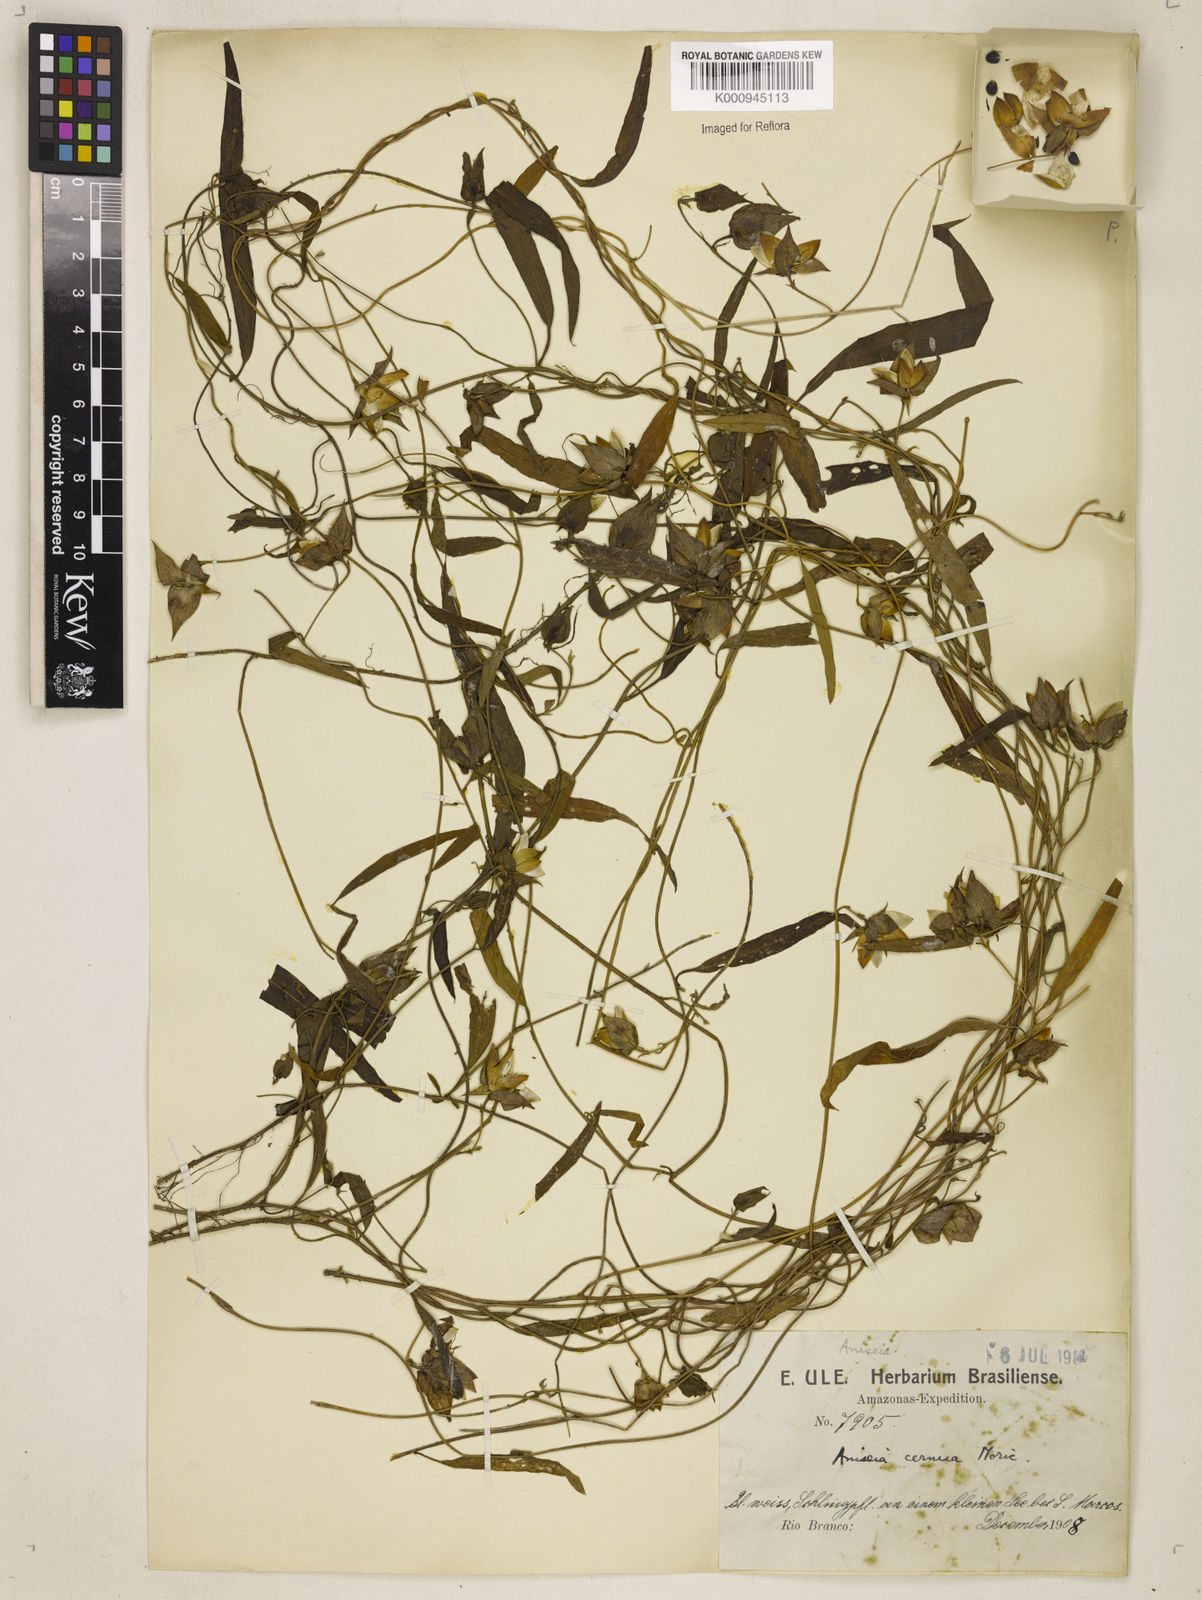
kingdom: Plantae
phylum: Tracheophyta
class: Magnoliopsida
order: Solanales
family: Convolvulaceae
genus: Aniseia
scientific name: Aniseia
